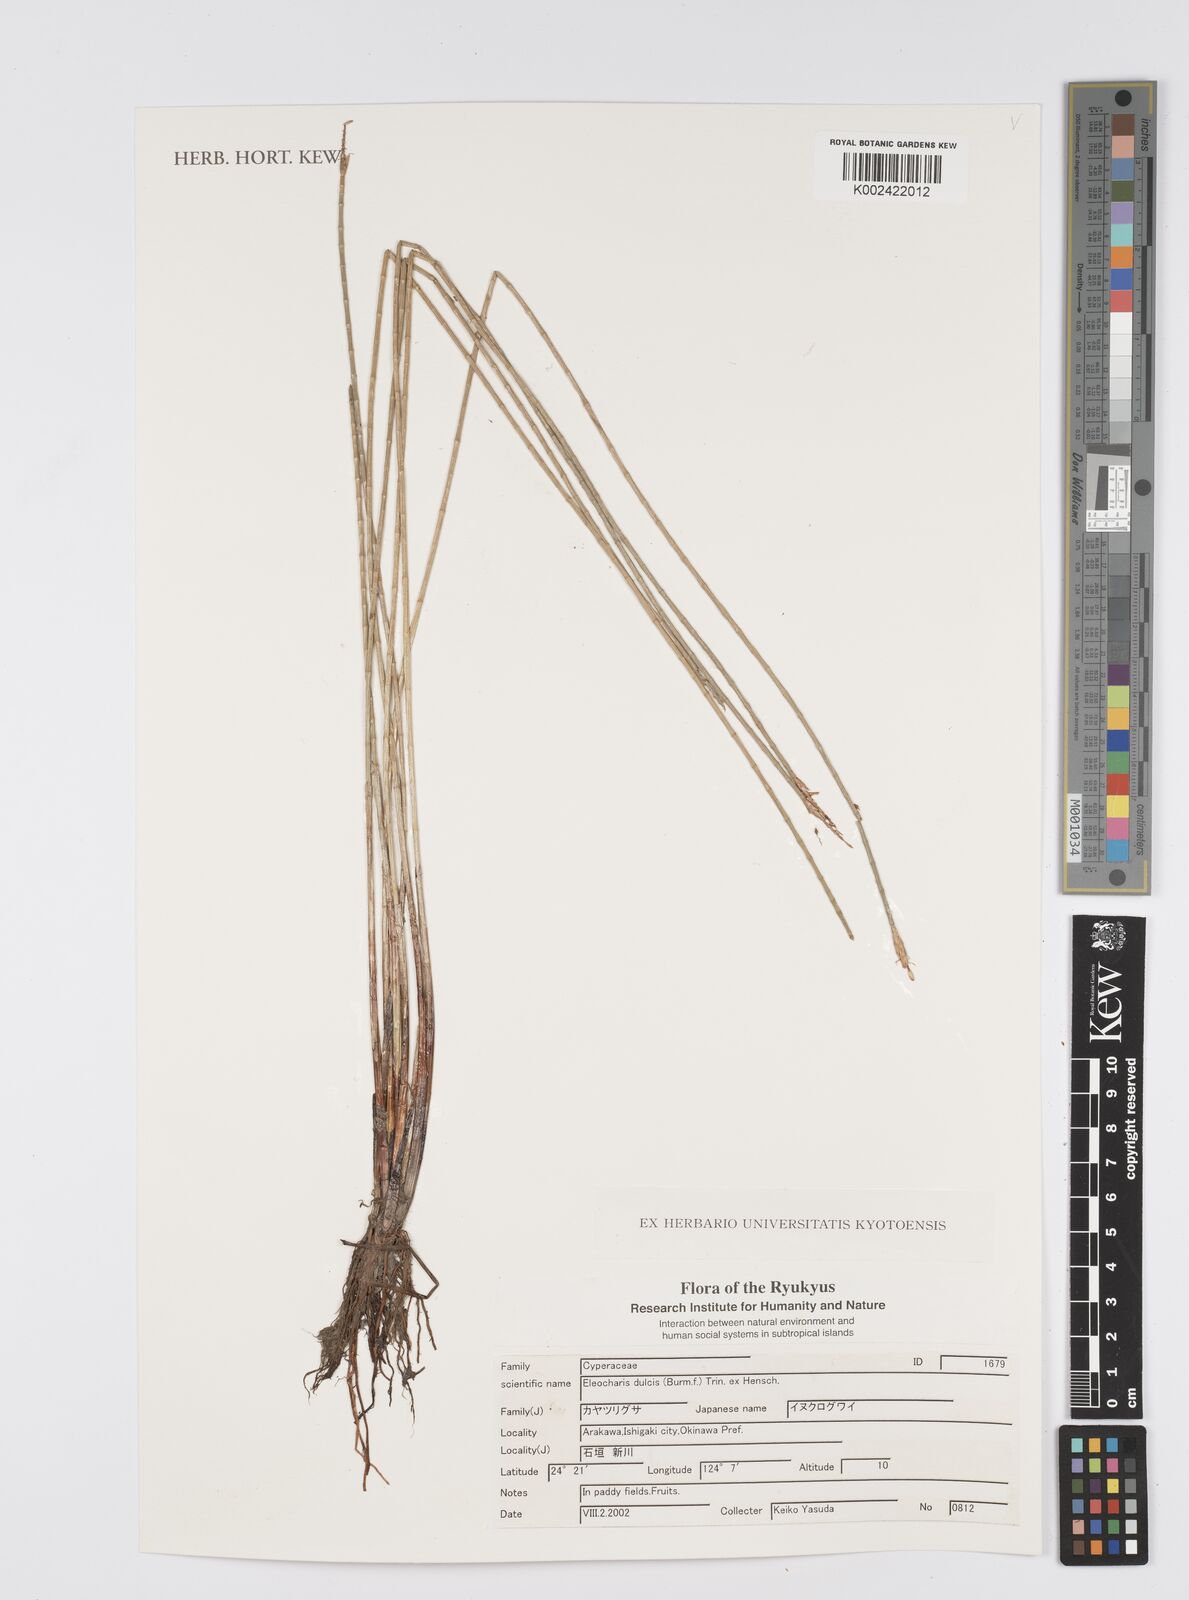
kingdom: Plantae
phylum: Tracheophyta
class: Liliopsida
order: Poales
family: Cyperaceae
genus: Eleocharis
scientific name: Eleocharis dulcis
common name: Chinese water chestnut
